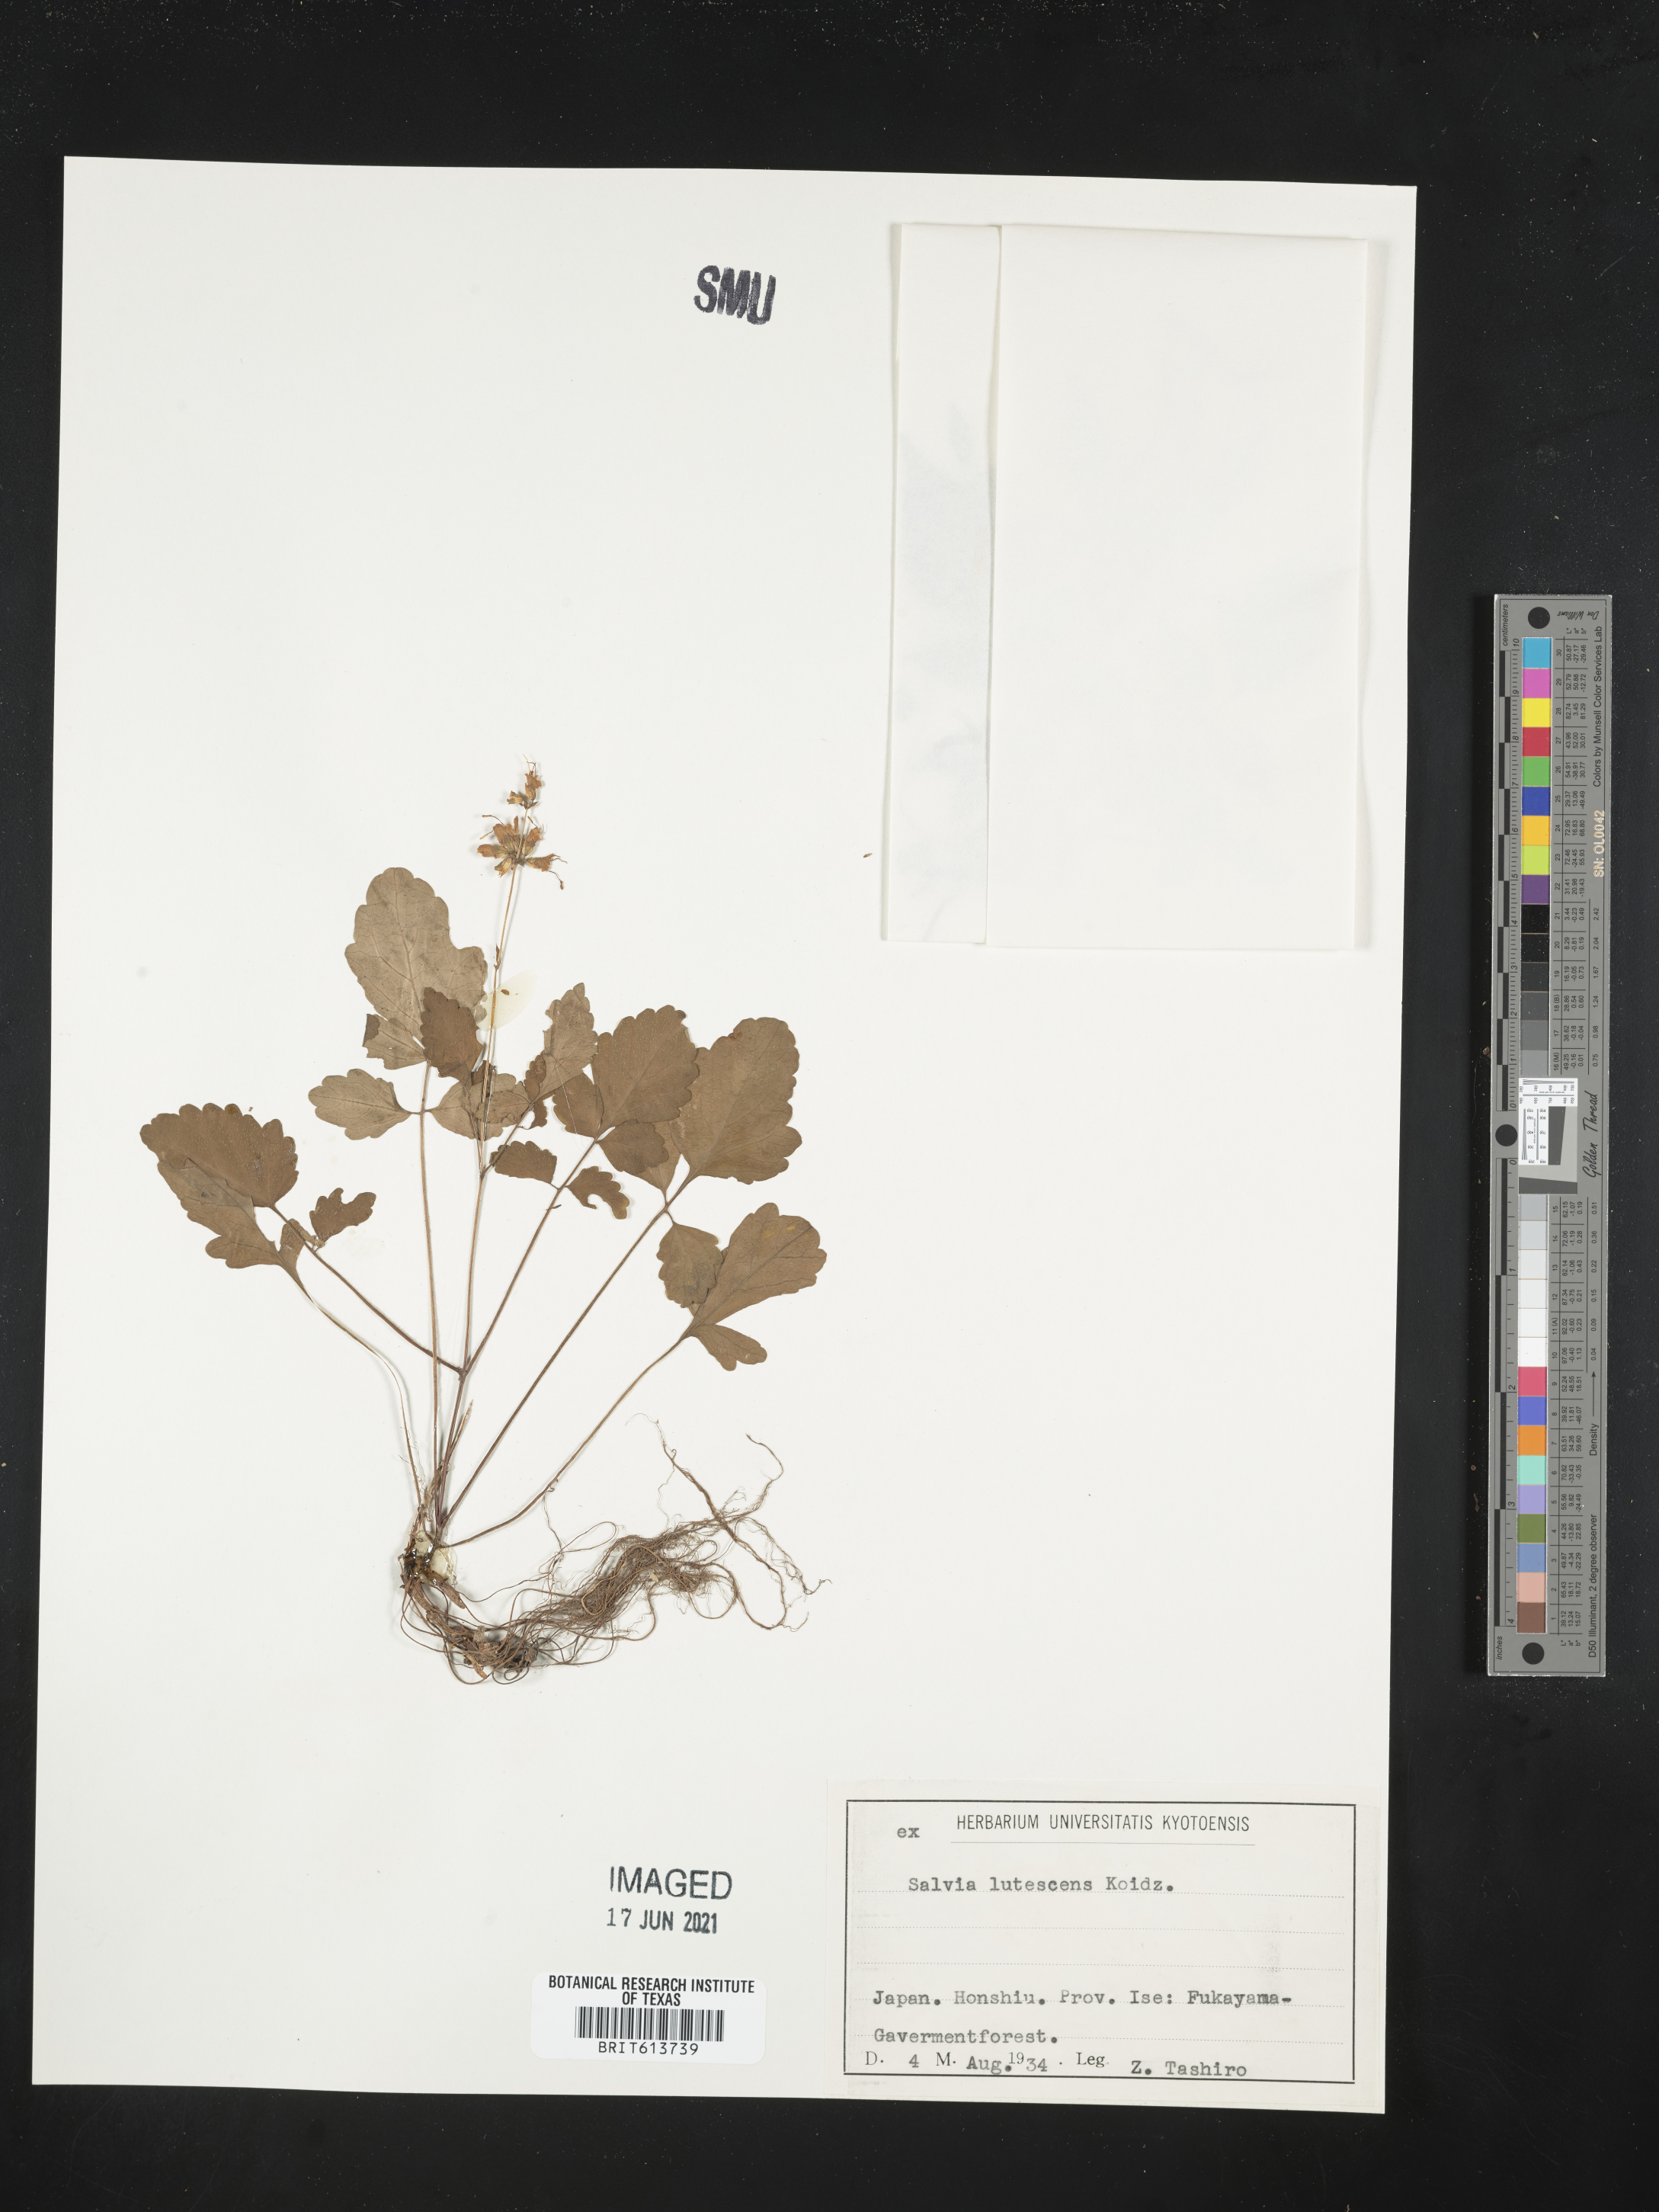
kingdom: Plantae
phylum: Tracheophyta
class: Magnoliopsida
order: Lamiales
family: Lamiaceae
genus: Salvia
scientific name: Salvia lutescens
